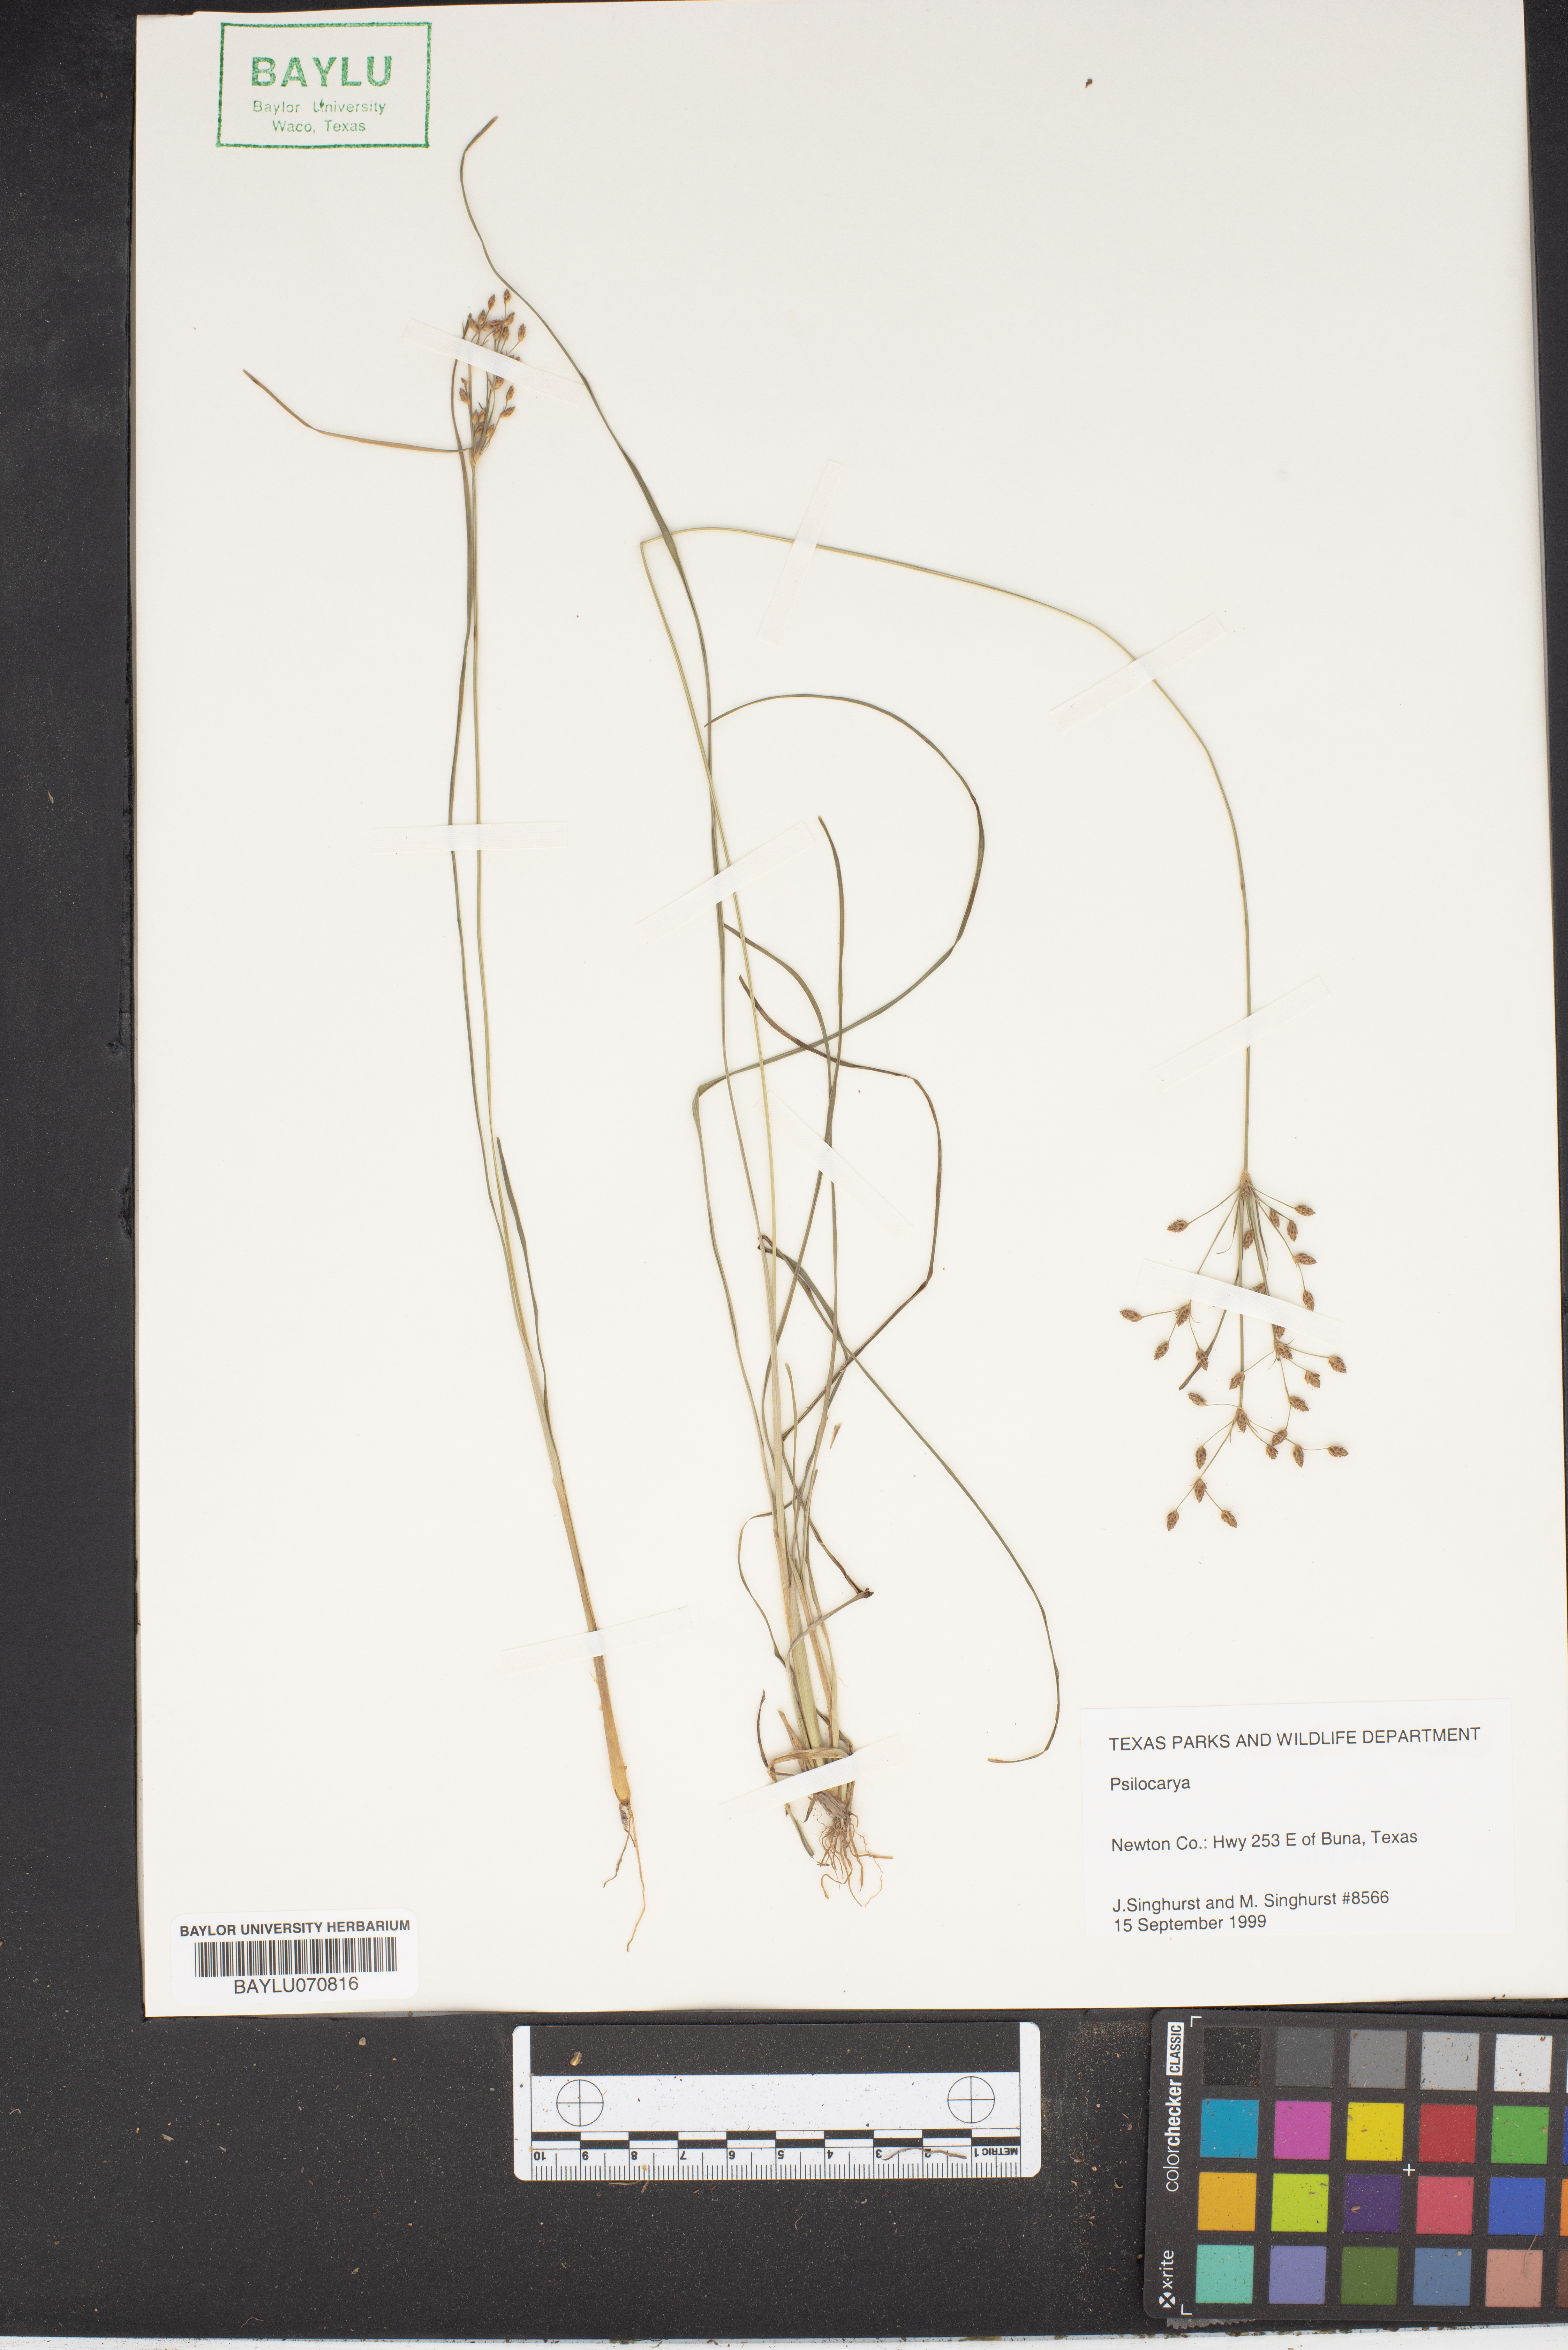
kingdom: Plantae
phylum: Tracheophyta
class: Liliopsida
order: Poales
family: Cyperaceae
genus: Rhynchospora
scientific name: Rhynchospora
